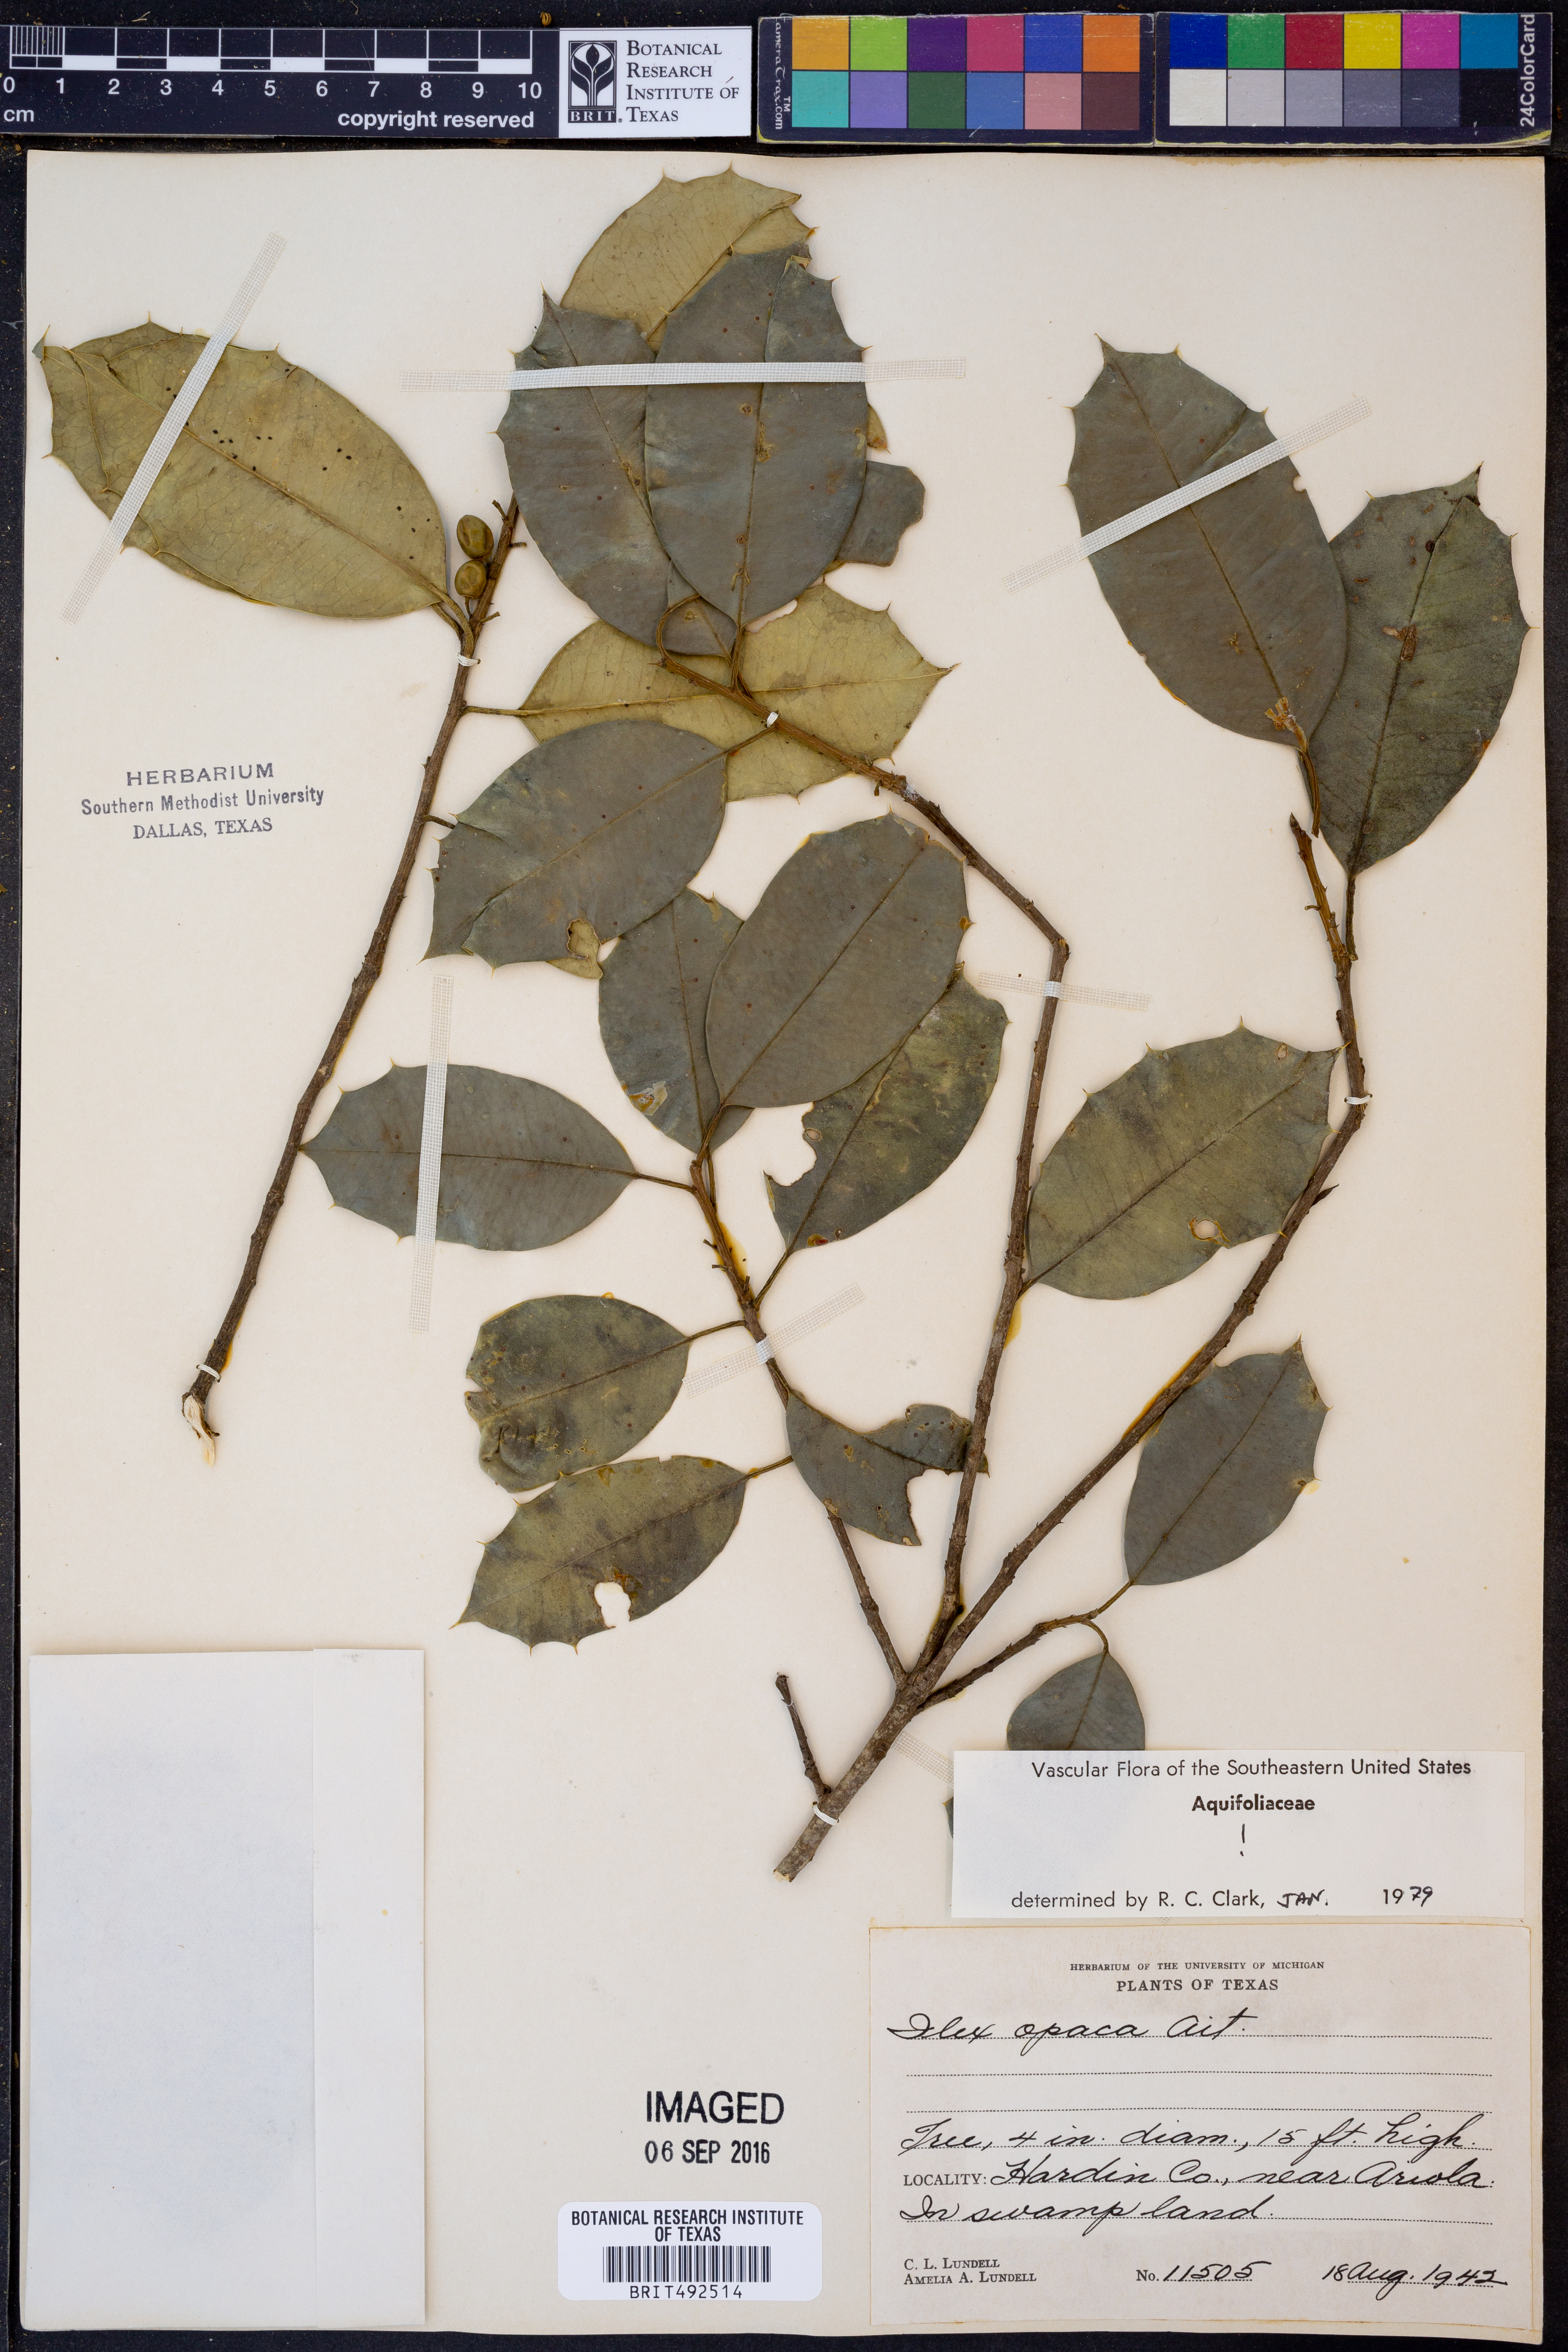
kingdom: Plantae
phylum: Tracheophyta
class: Magnoliopsida
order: Aquifoliales
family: Aquifoliaceae
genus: Ilex
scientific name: Ilex opaca
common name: American holly
